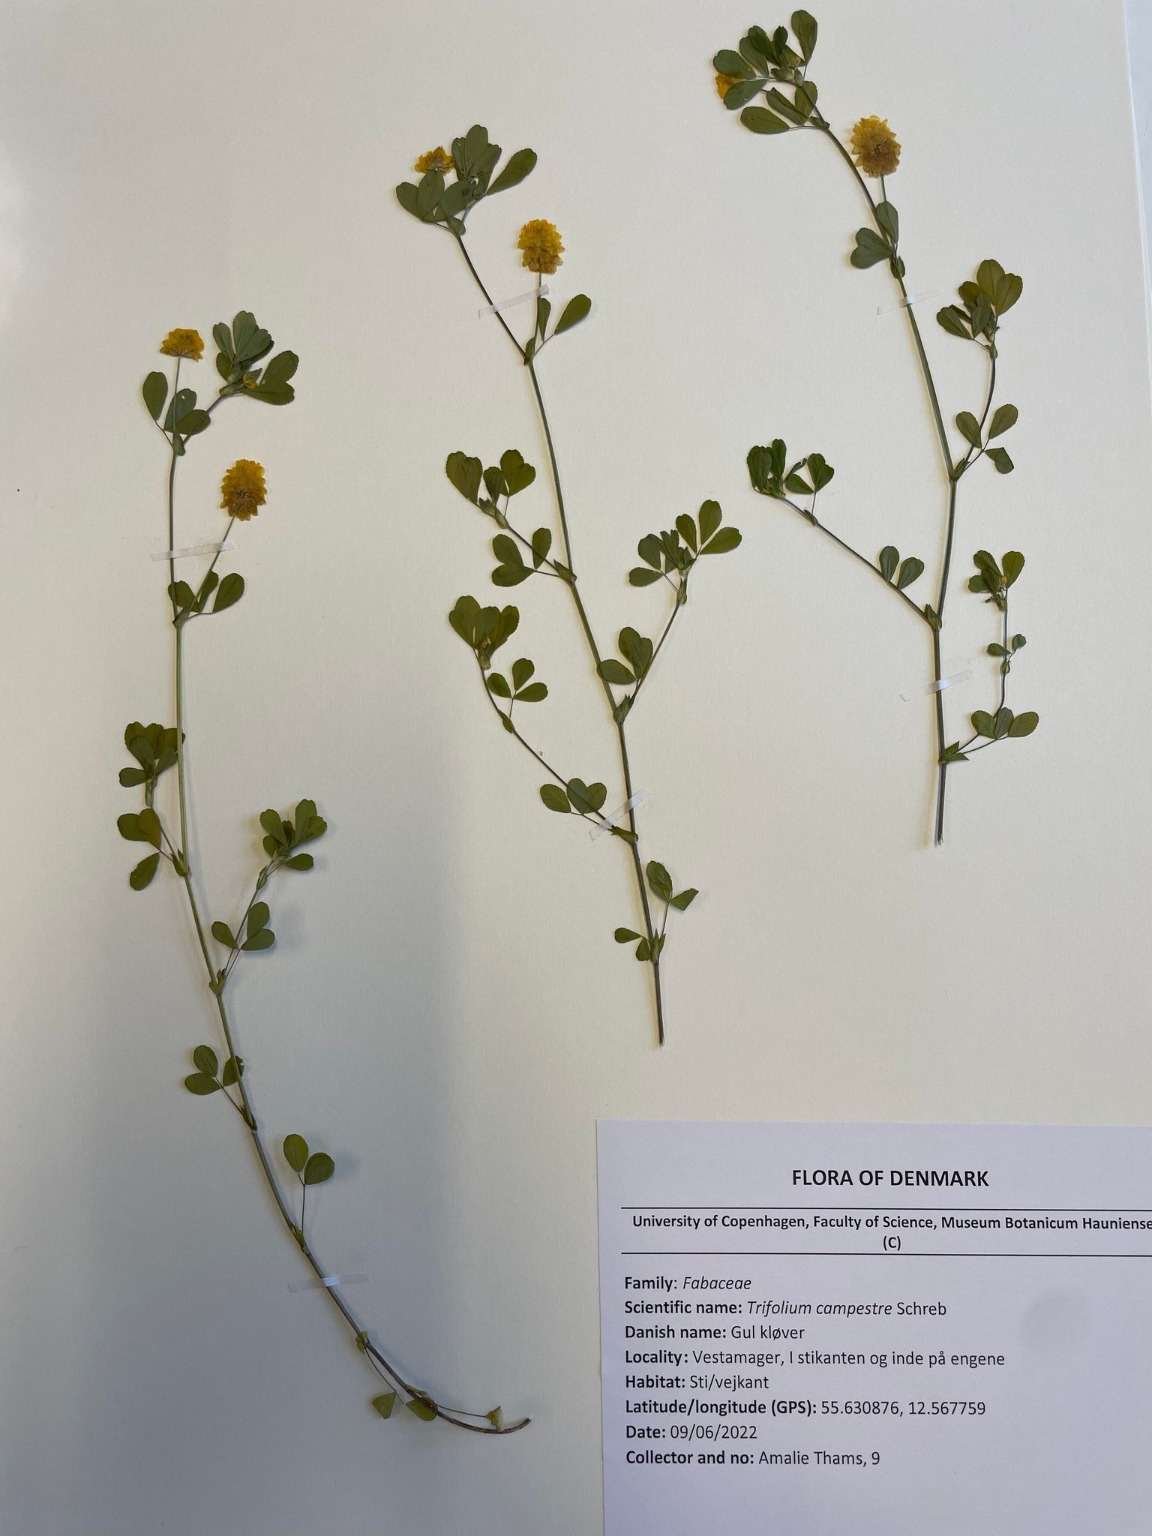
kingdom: Plantae
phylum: Tracheophyta
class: Magnoliopsida
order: Fabales
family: Fabaceae
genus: Trifolium
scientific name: Trifolium campestre
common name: Gul kløver
